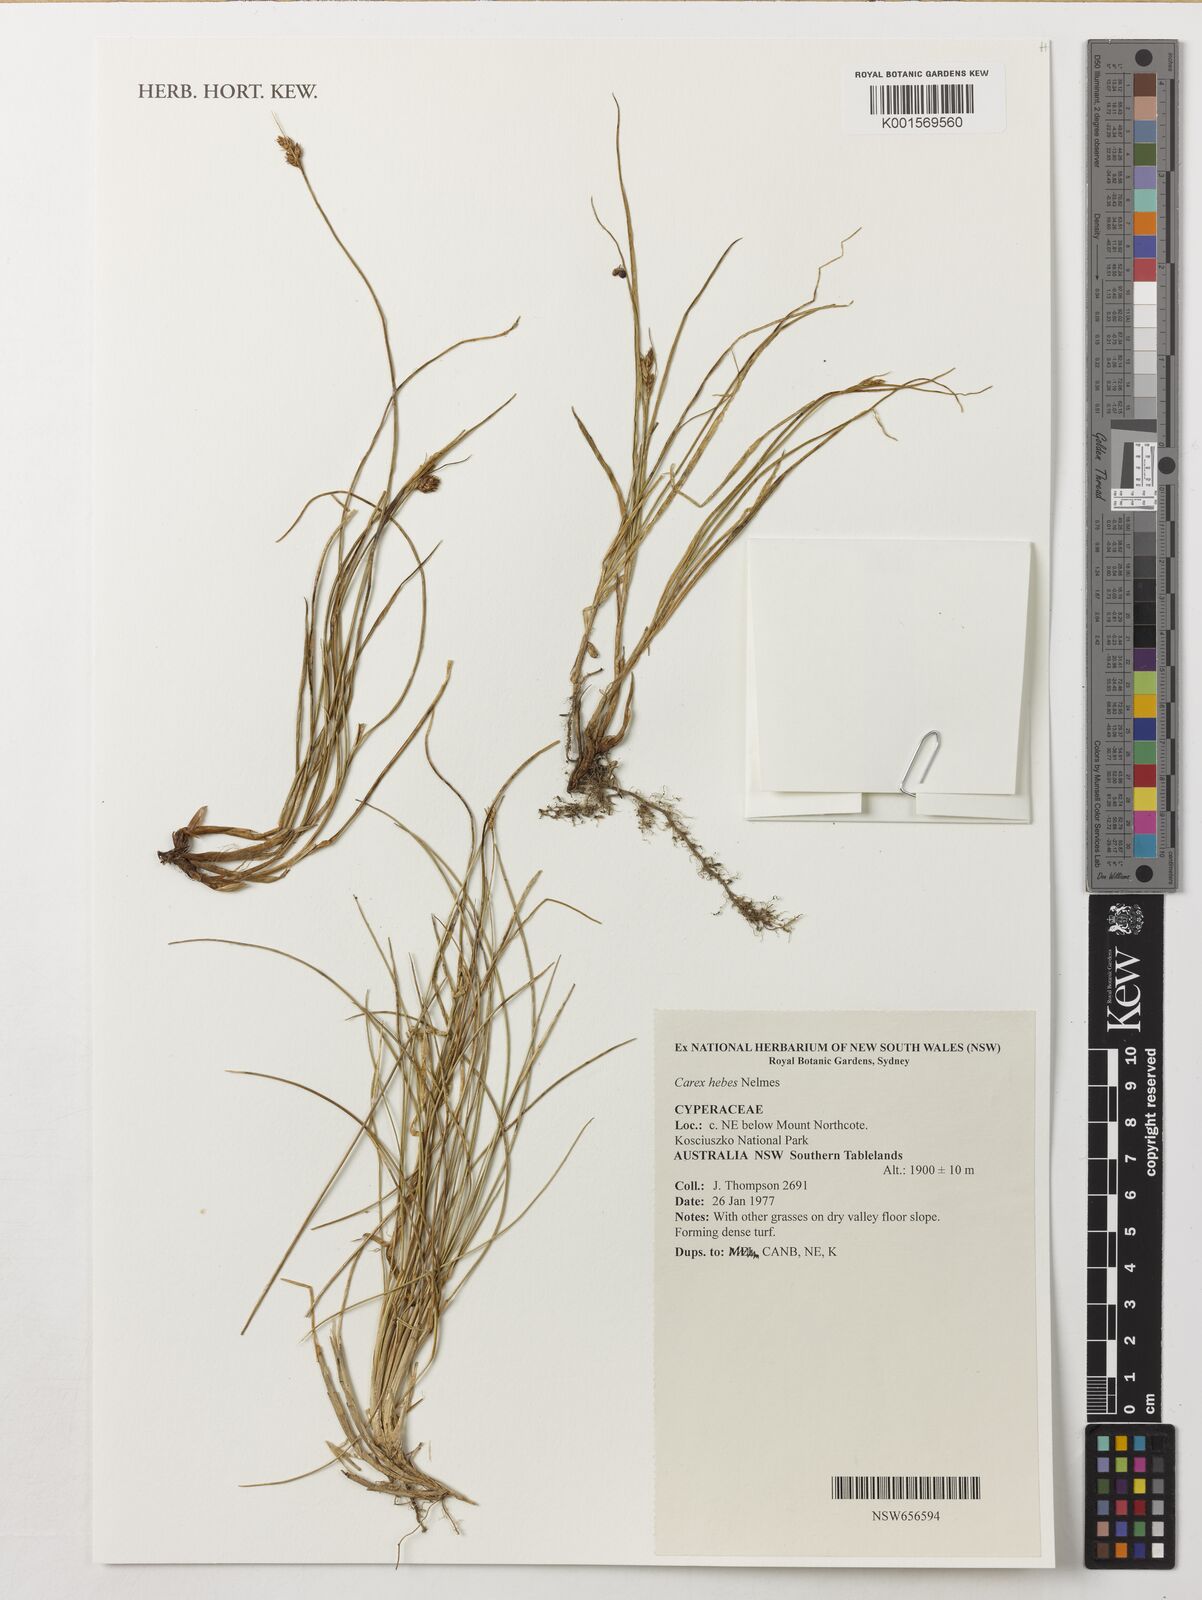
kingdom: Plantae
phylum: Tracheophyta
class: Liliopsida
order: Poales
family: Cyperaceae
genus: Carex
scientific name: Carex hebes
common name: Dry land sedge
